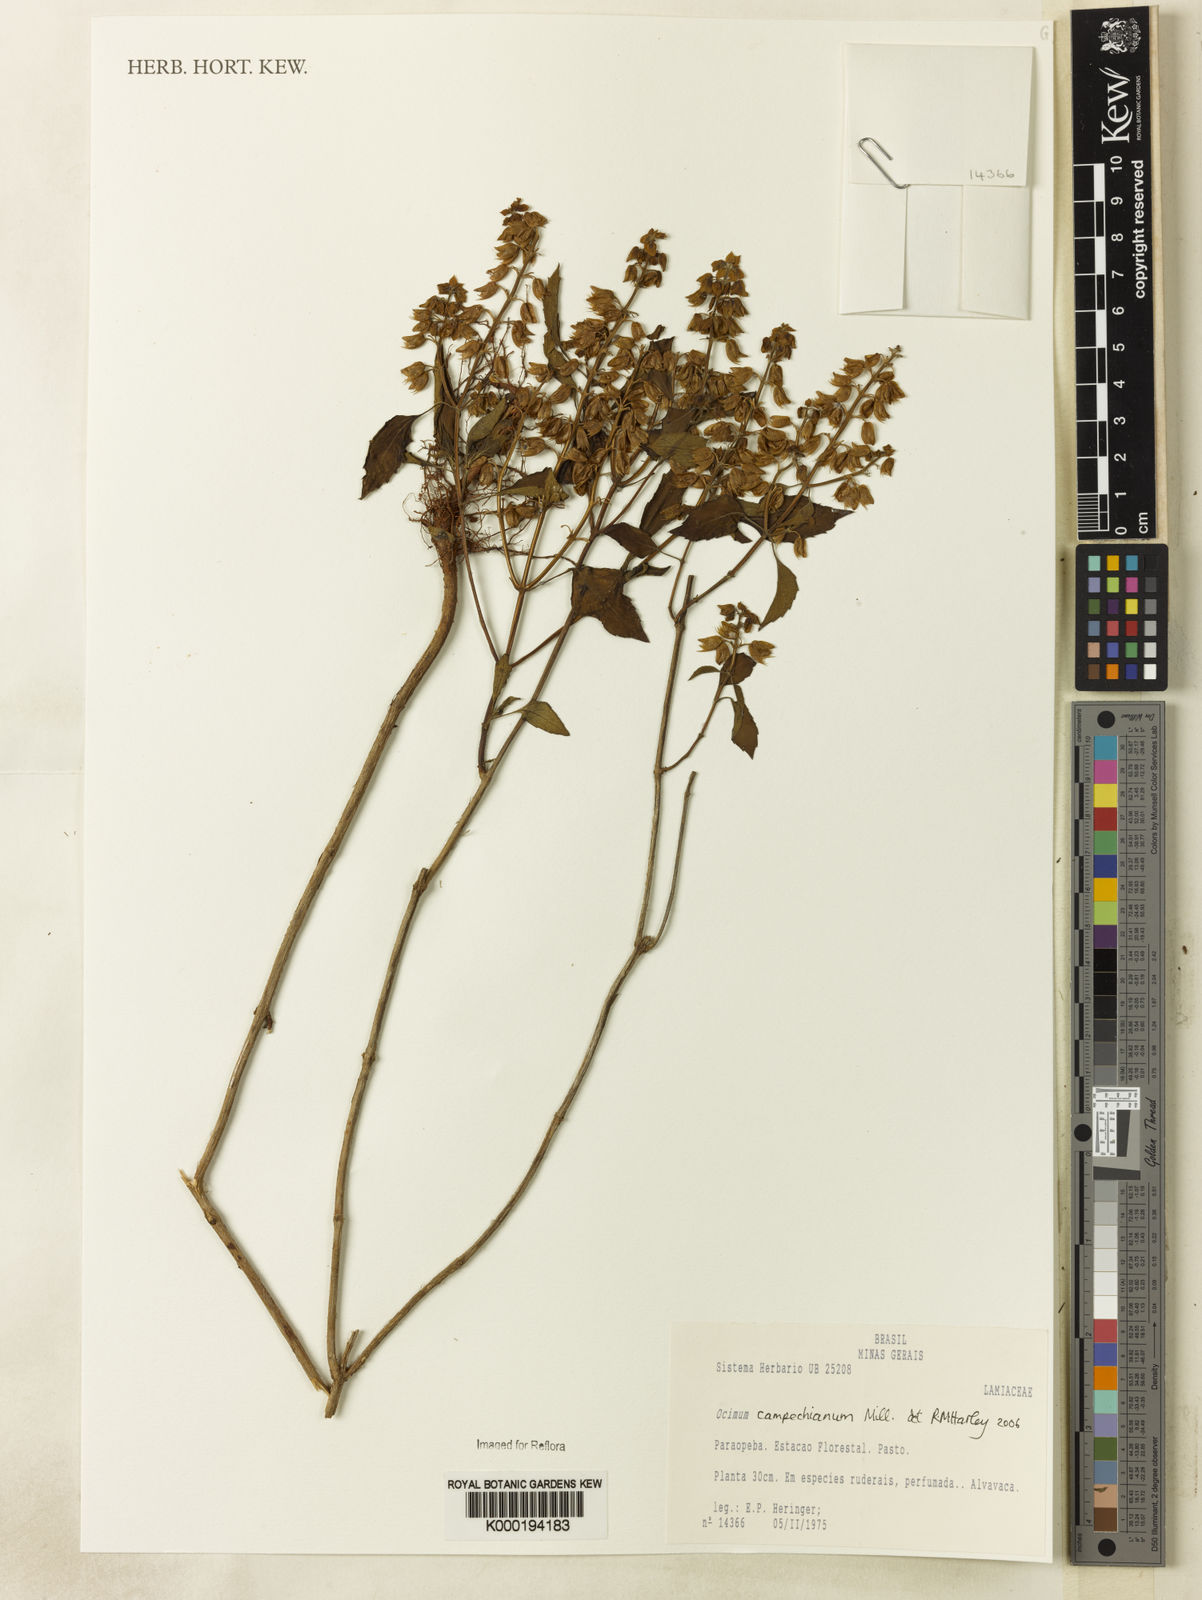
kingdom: Plantae
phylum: Tracheophyta
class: Magnoliopsida
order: Lamiales
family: Lamiaceae
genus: Ocimum
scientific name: Ocimum campechianum
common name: Mosquito basil
